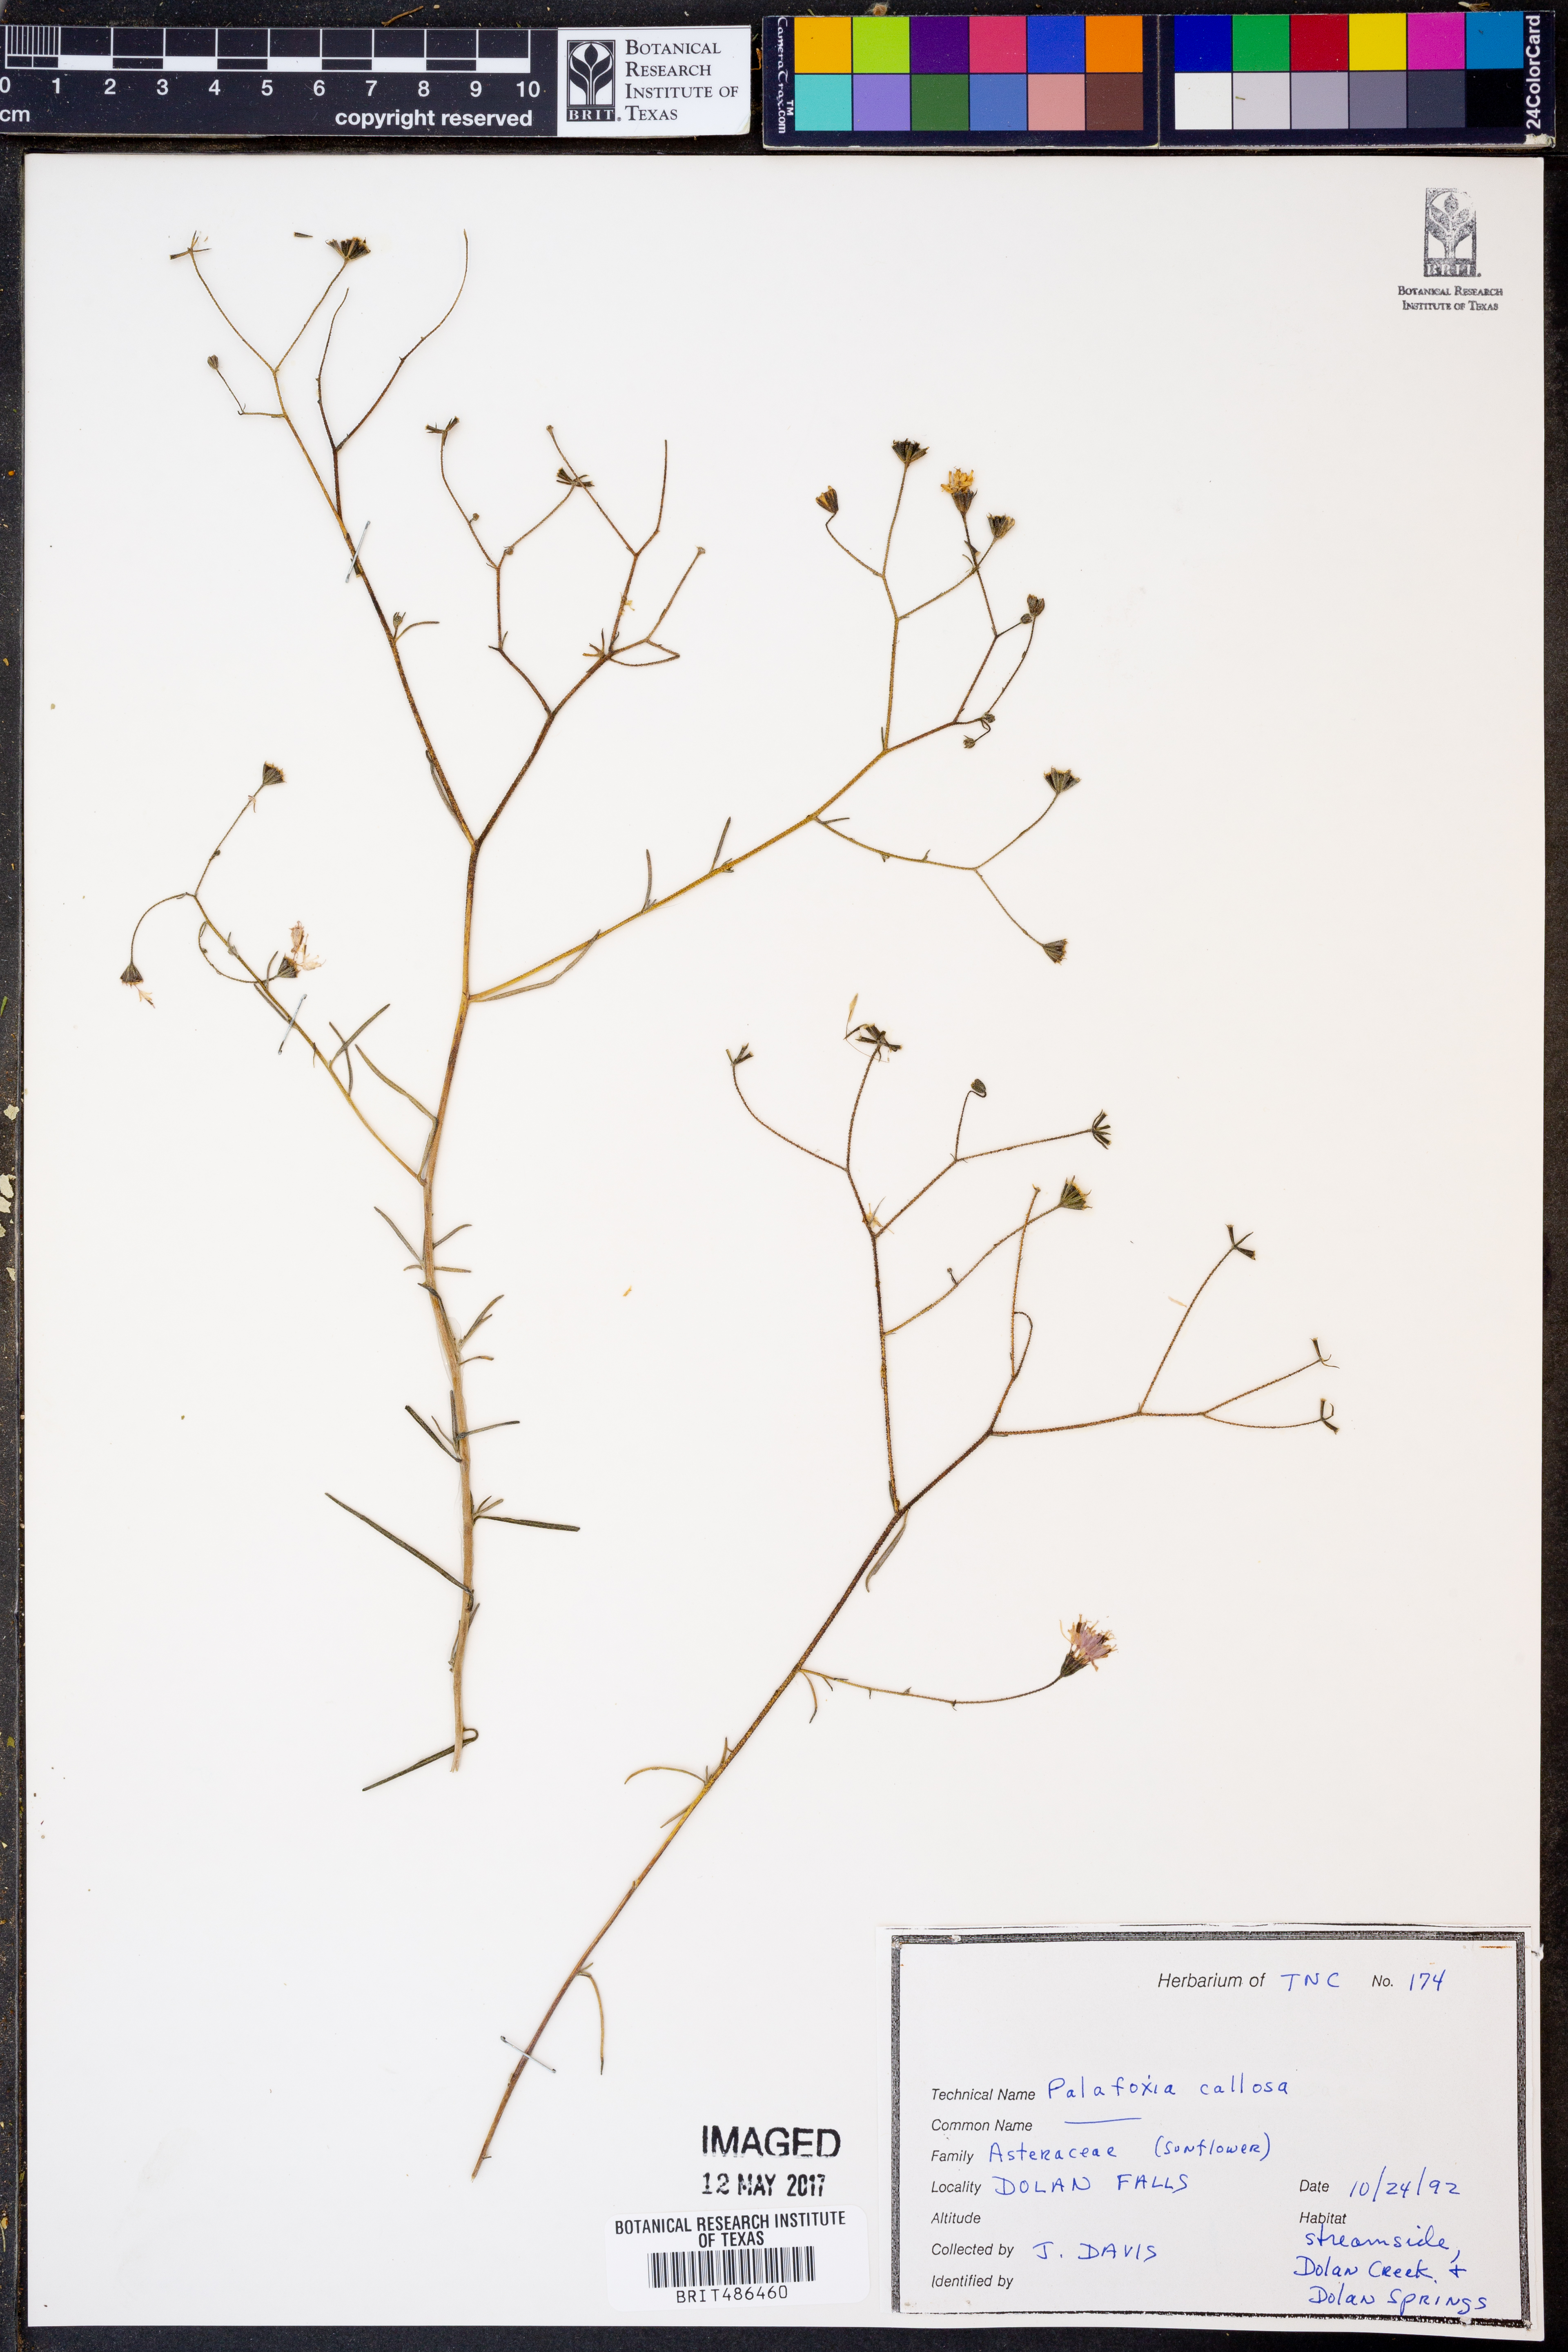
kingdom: Plantae
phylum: Tracheophyta
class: Magnoliopsida
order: Asterales
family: Asteraceae
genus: Palafoxia
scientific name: Palafoxia callosa
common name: Small palafox
